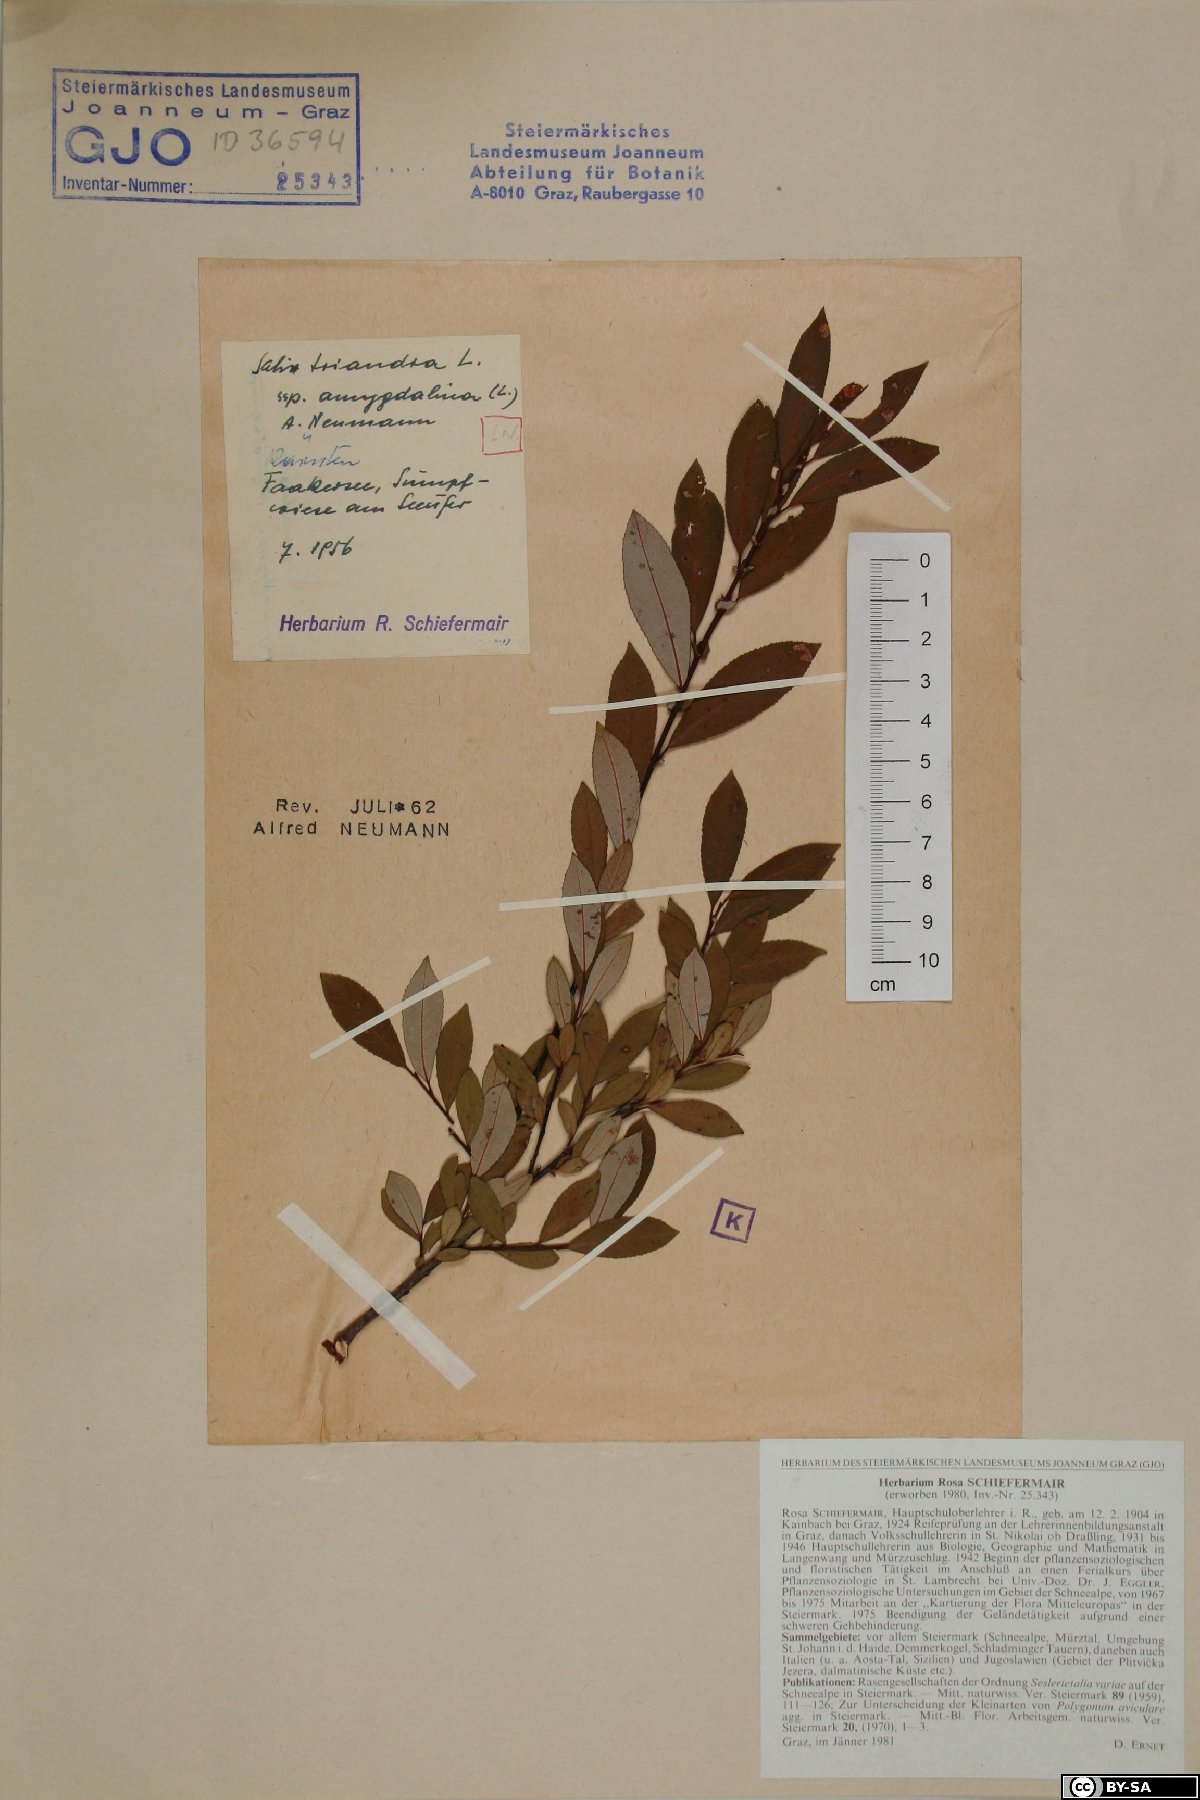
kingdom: Plantae
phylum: Tracheophyta
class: Magnoliopsida
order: Malpighiales
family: Salicaceae
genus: Salix
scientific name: Salix triandra
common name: Almond willow
